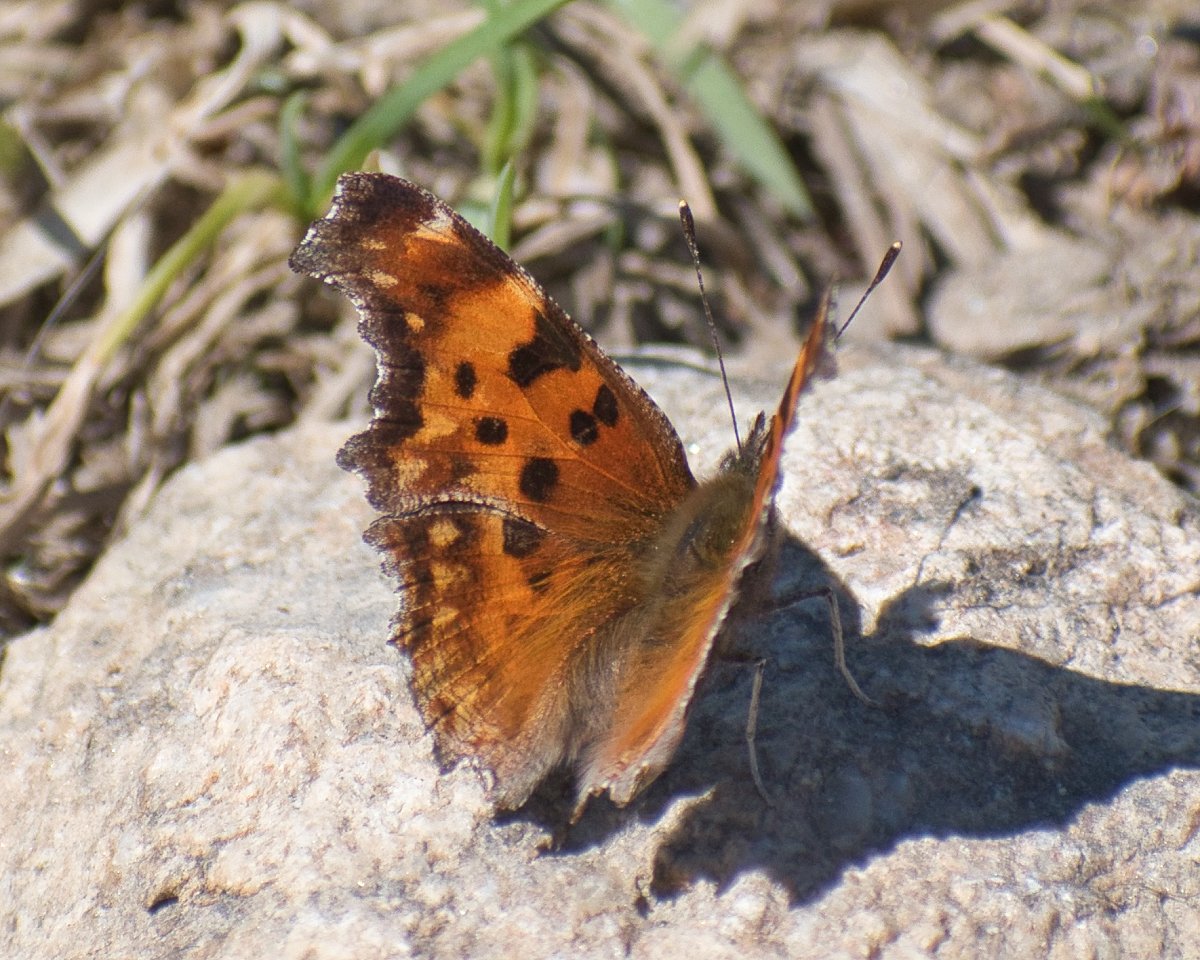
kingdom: Animalia
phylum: Arthropoda
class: Insecta
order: Lepidoptera
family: Nymphalidae
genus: Polygonia
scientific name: Polygonia gracilis
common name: Hoary Comma
